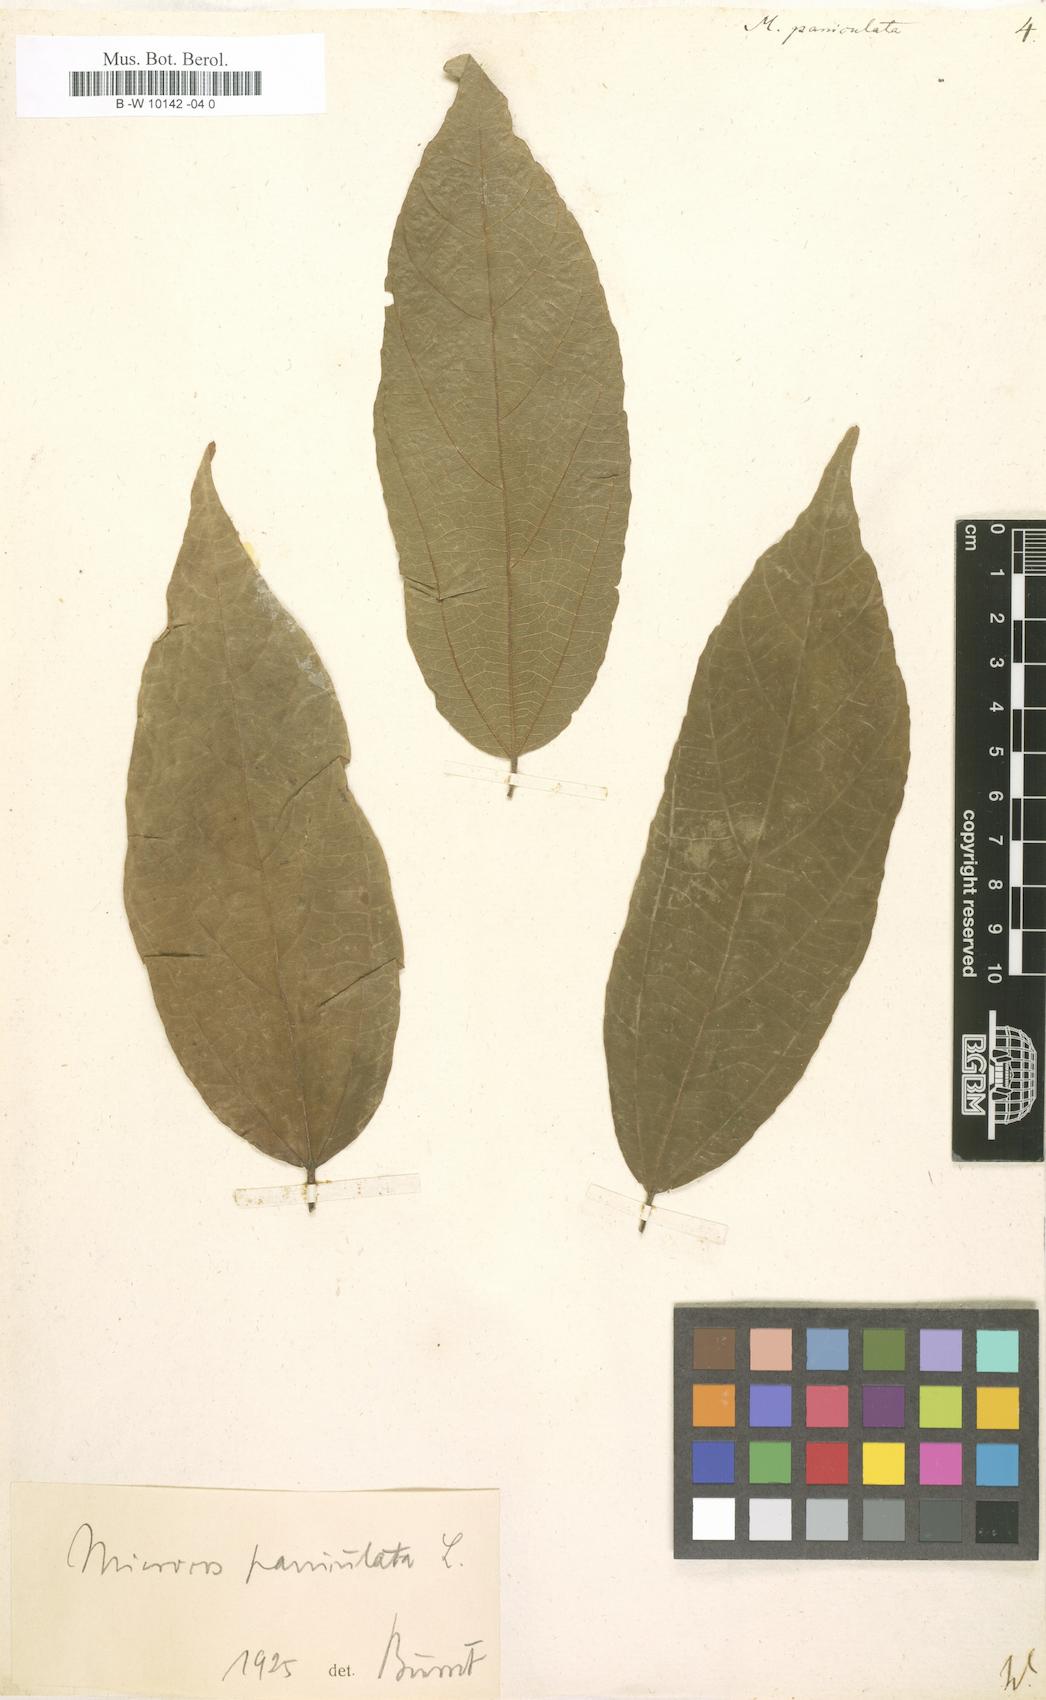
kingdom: Plantae
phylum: Tracheophyta
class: Magnoliopsida
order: Malvales
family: Malvaceae
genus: Microcos
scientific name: Microcos paniculata
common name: Microcos
